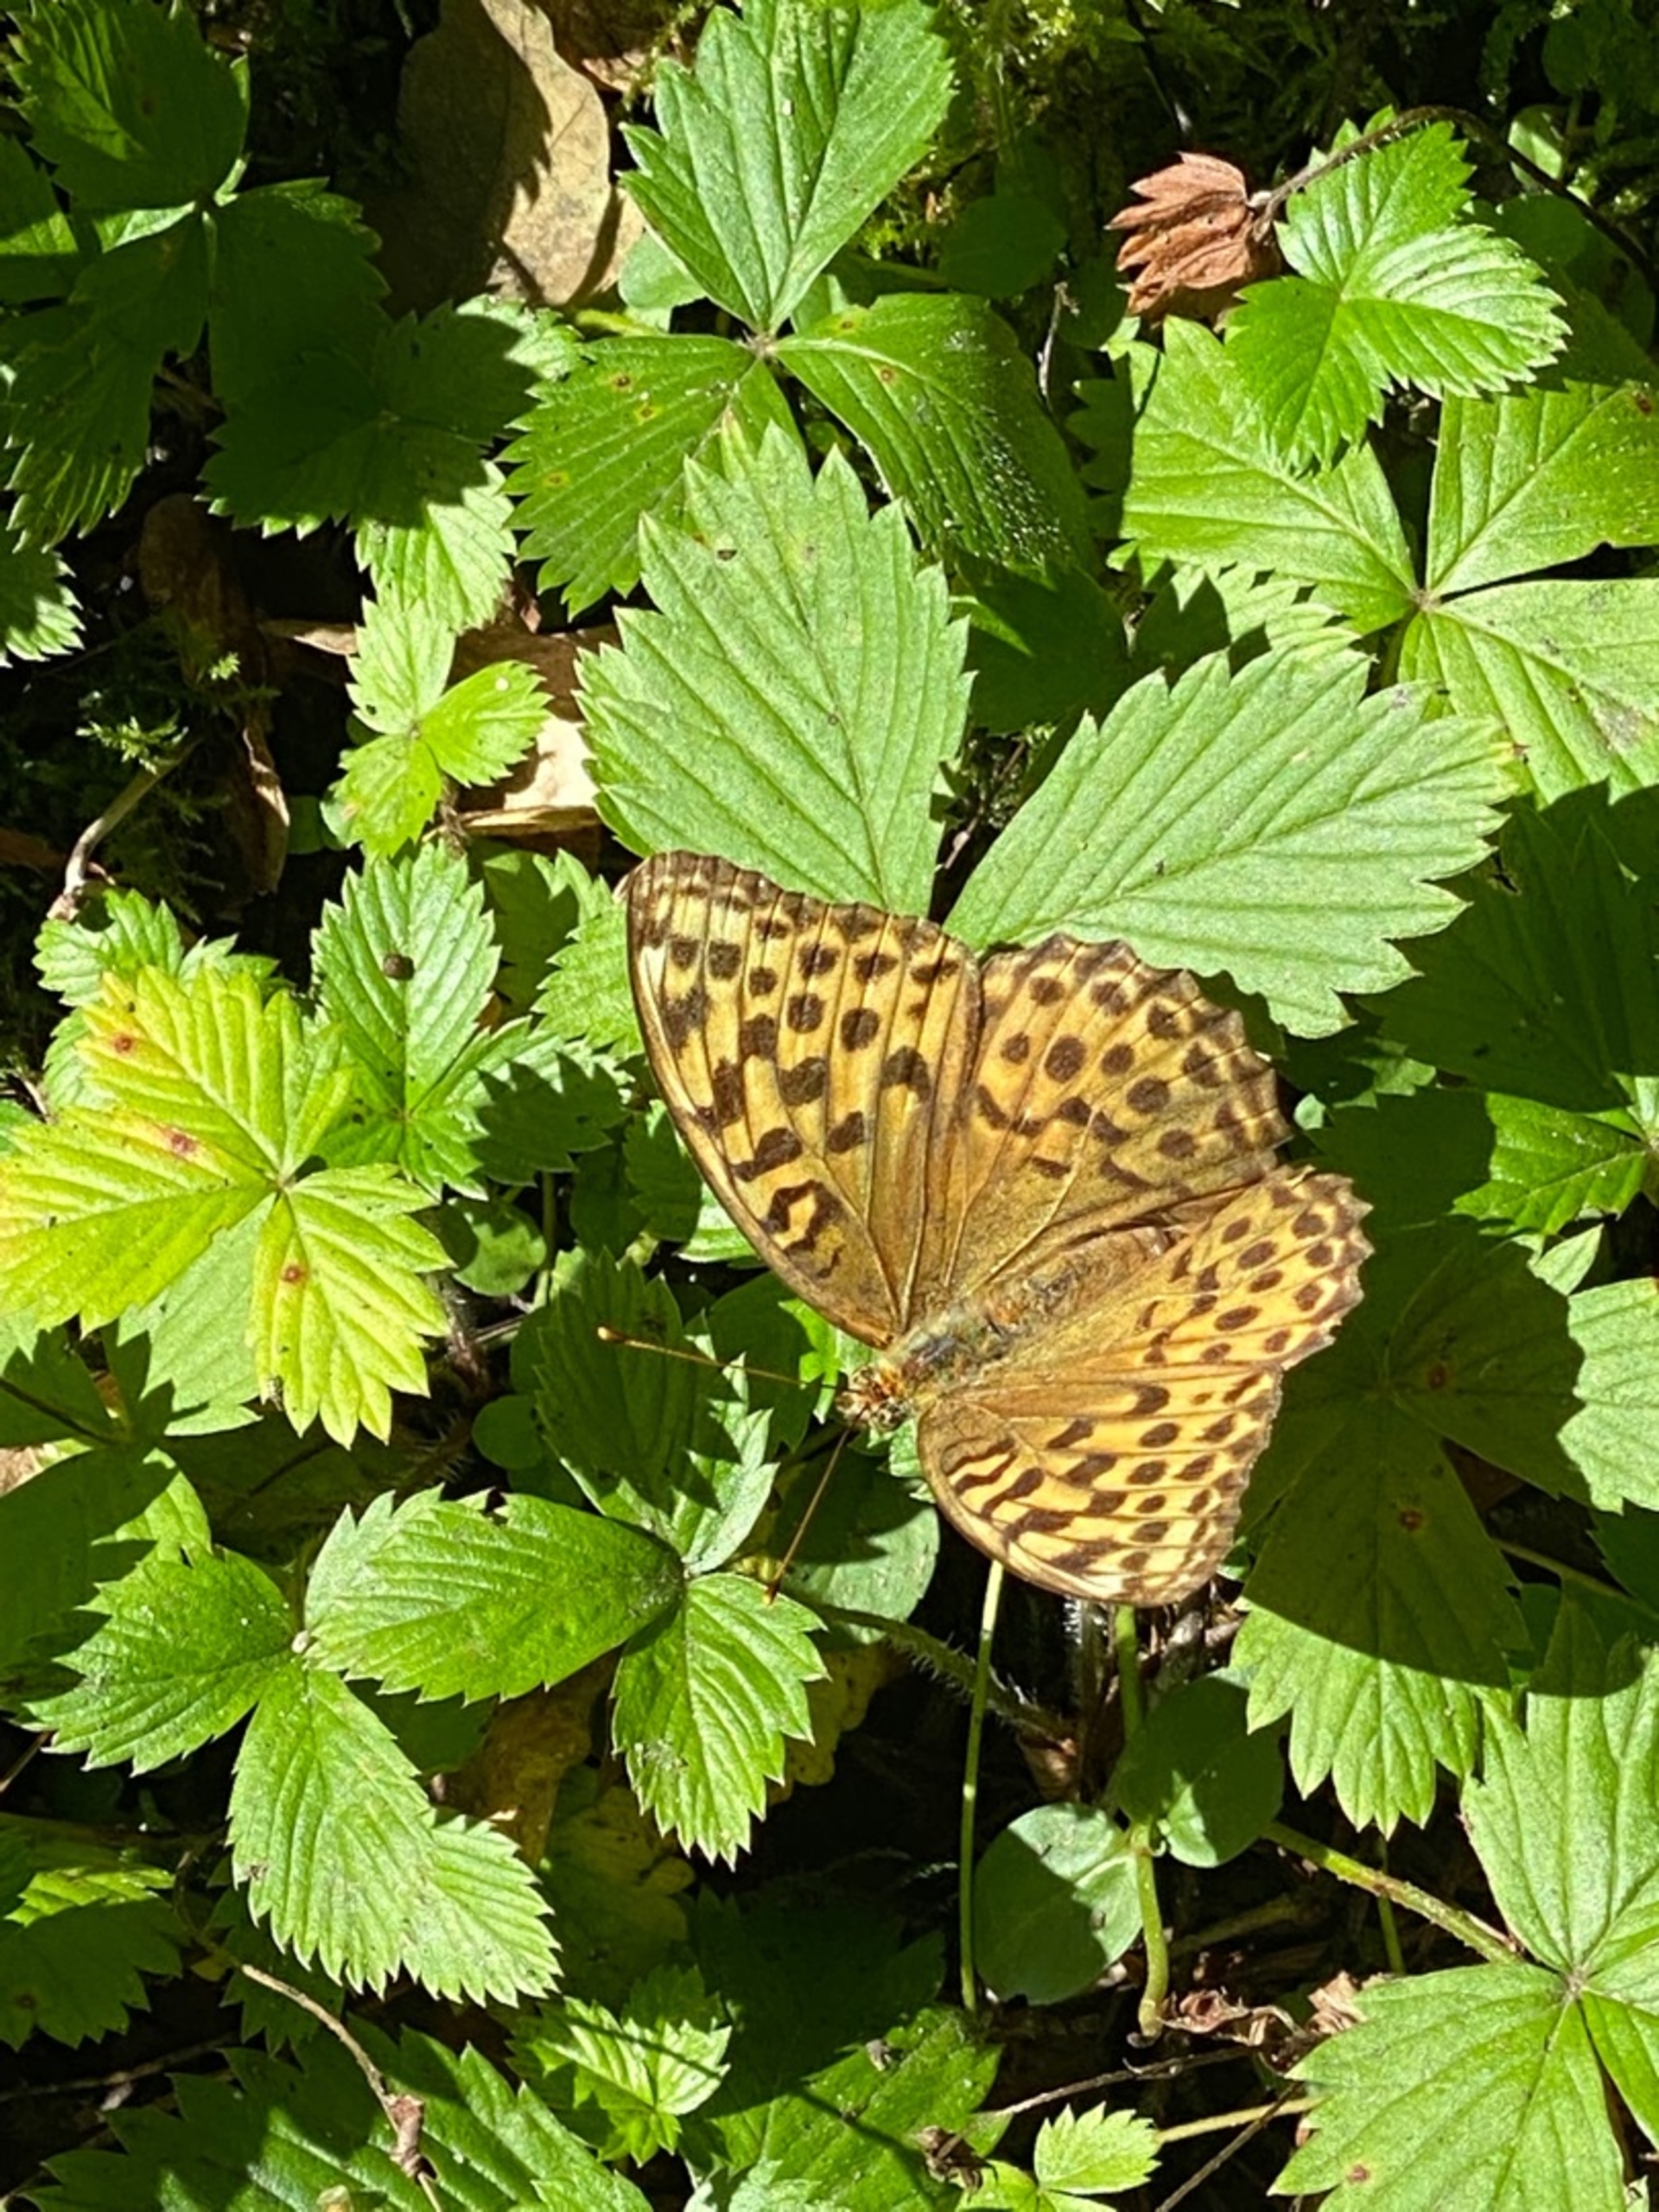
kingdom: Animalia
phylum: Arthropoda
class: Insecta
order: Lepidoptera
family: Nymphalidae
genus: Argynnis
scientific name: Argynnis paphia
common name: Kejserkåbe
